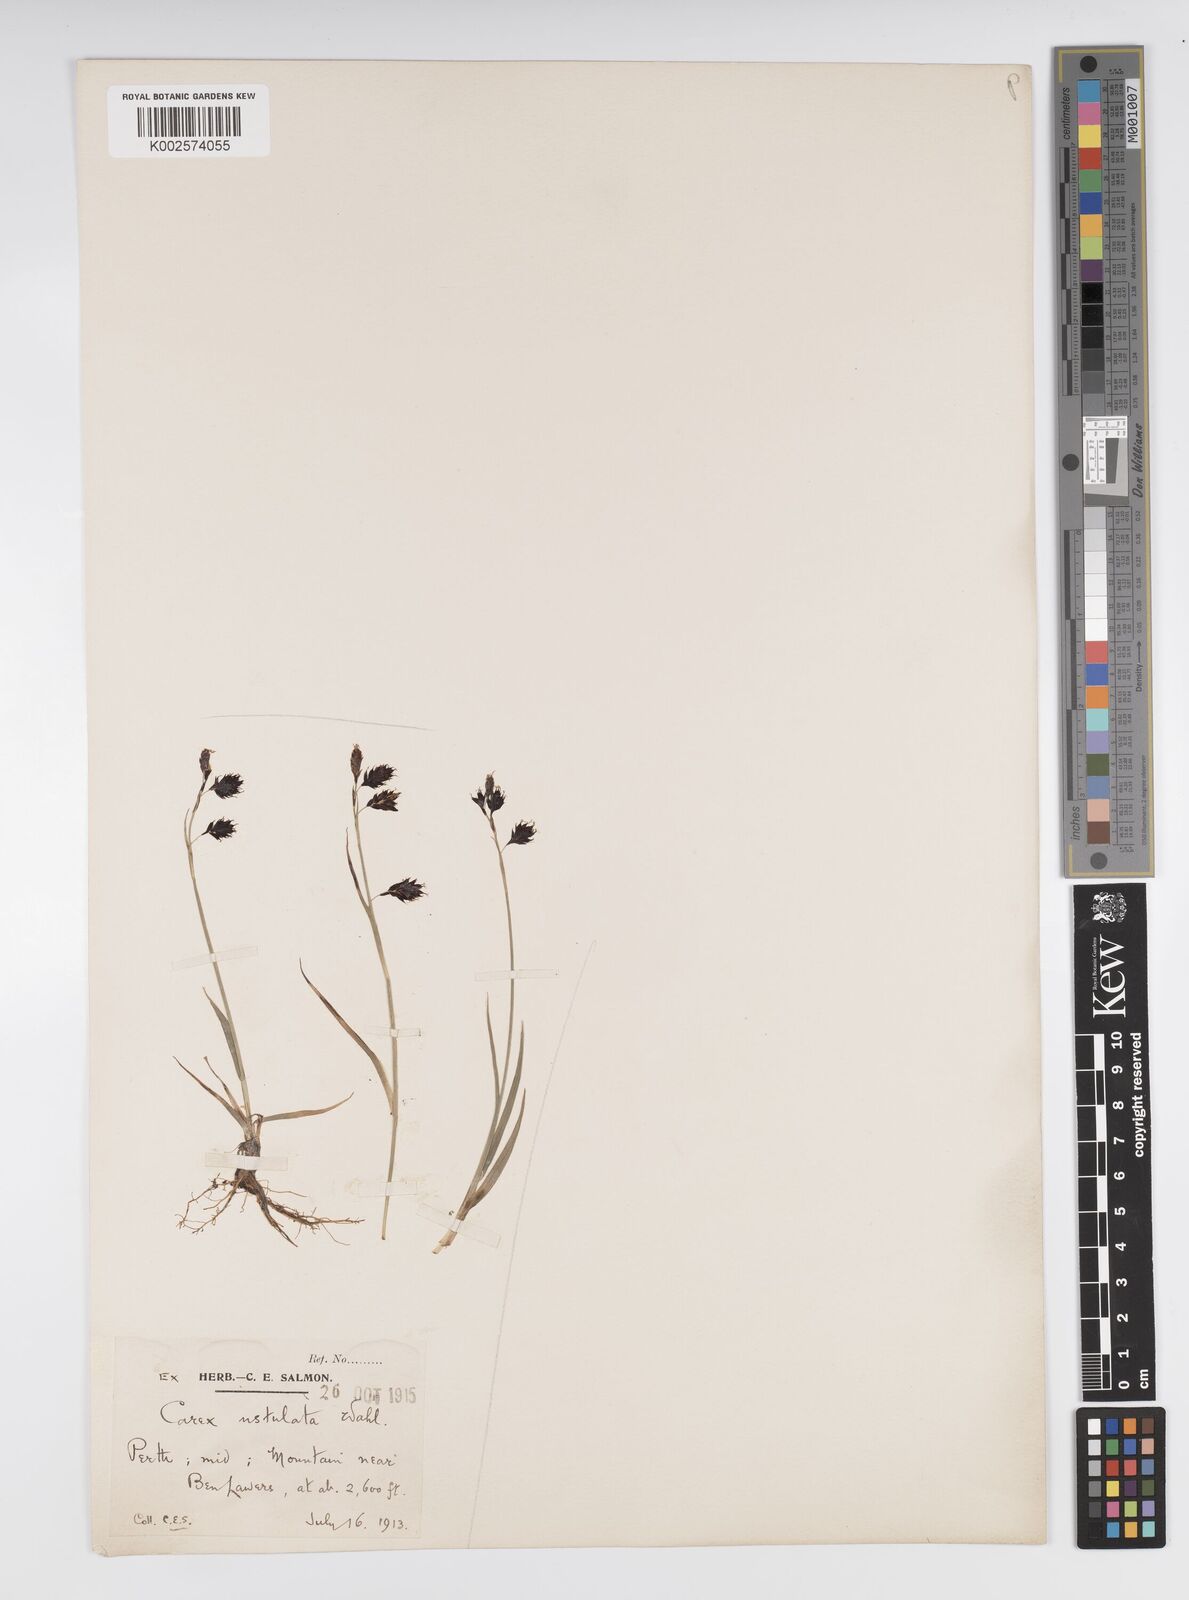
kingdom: Plantae
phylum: Tracheophyta
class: Liliopsida
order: Poales
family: Cyperaceae
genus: Carex
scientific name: Carex atrofusca
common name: Scorched alpine-sedge
